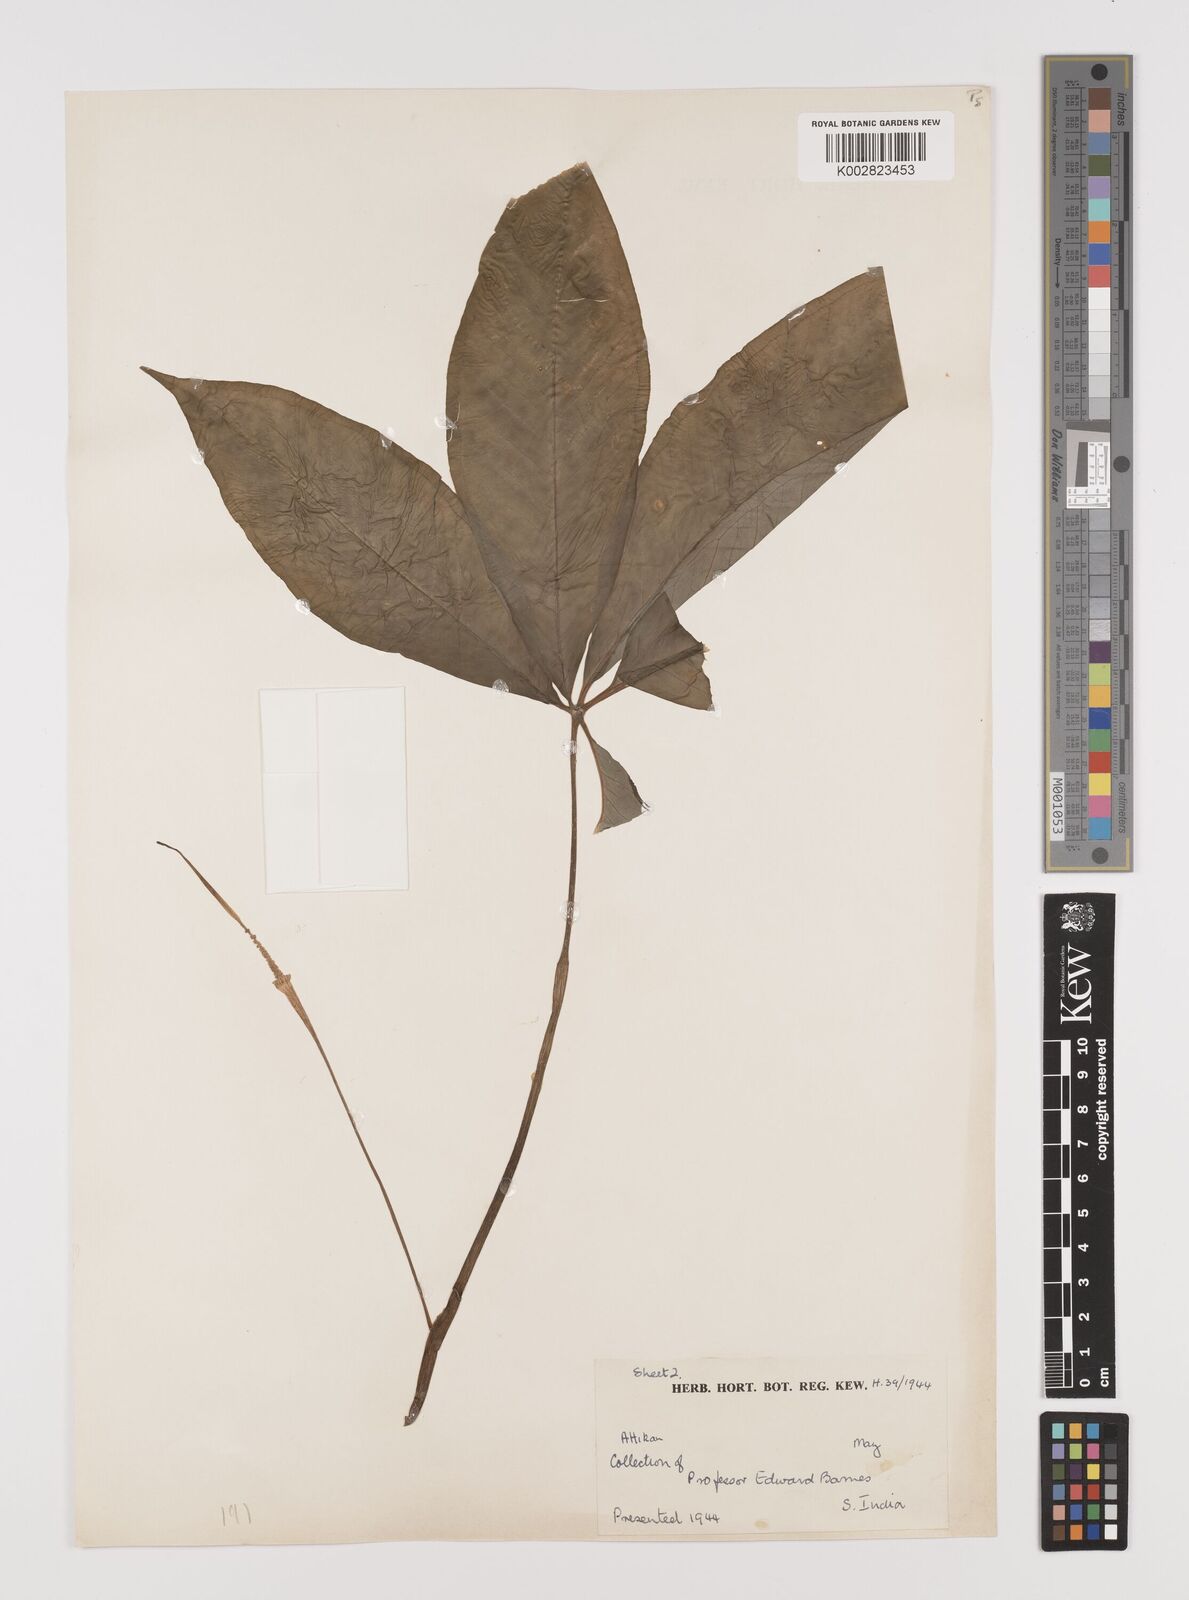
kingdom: Plantae
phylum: Tracheophyta
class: Liliopsida
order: Alismatales
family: Araceae
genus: Arisaema
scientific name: Arisaema
